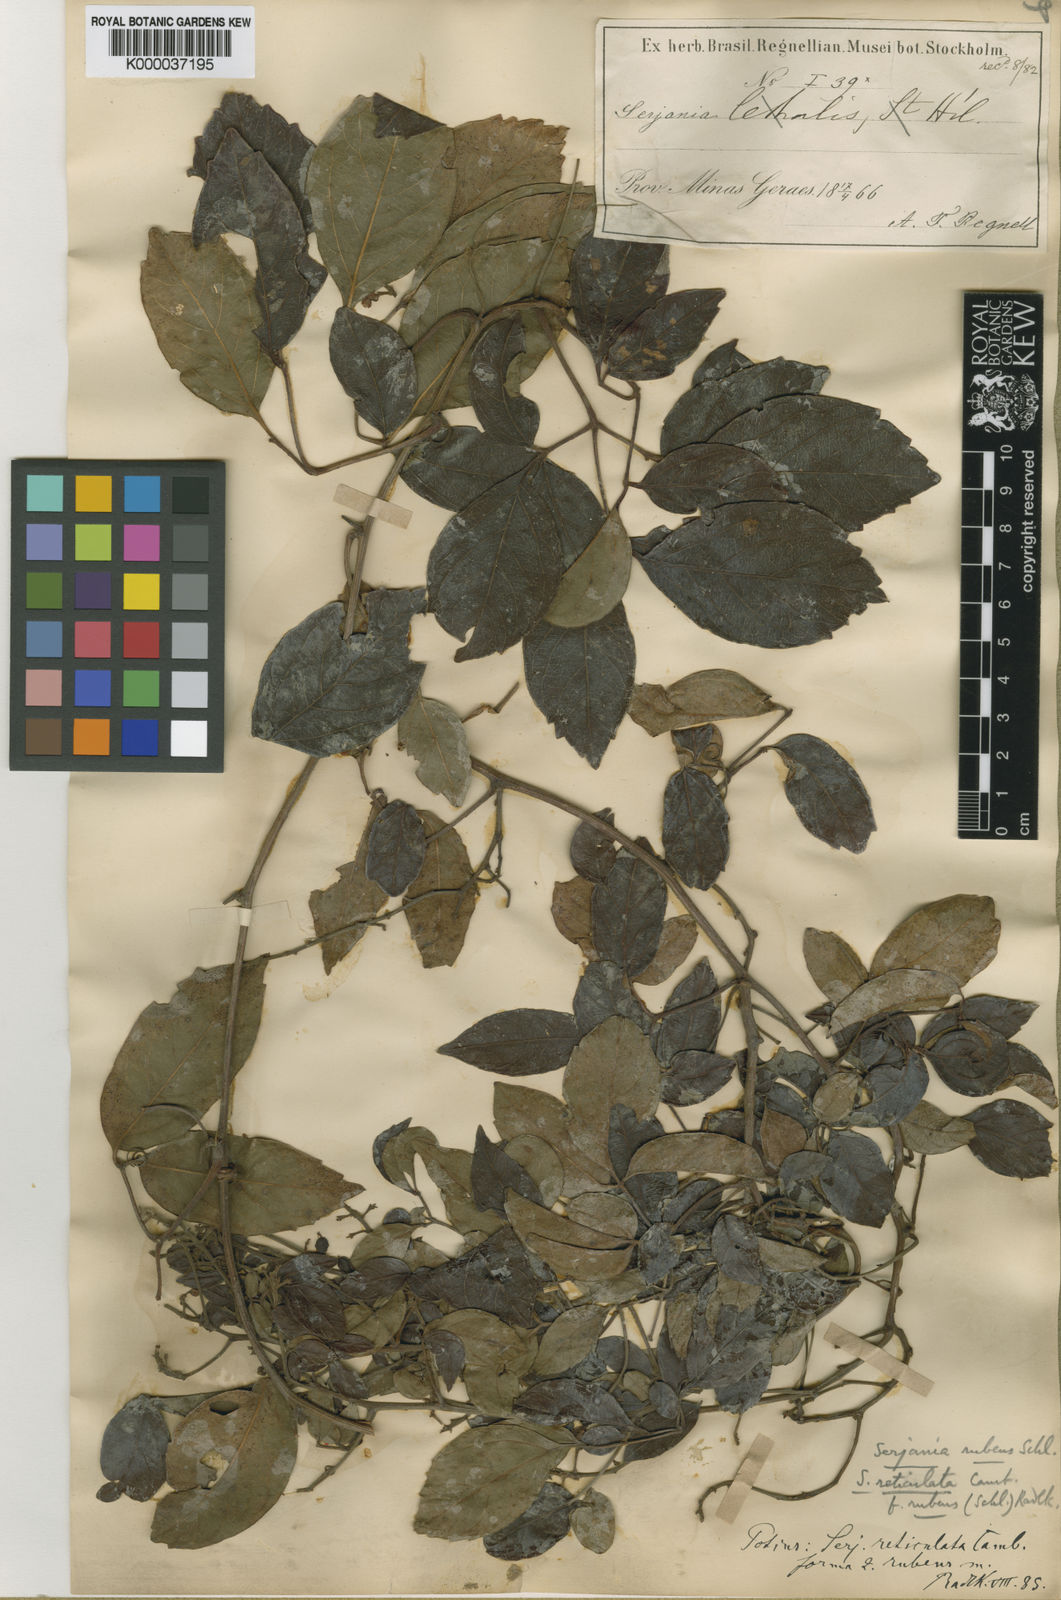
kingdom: Plantae
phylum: Tracheophyta
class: Magnoliopsida
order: Sapindales
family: Sapindaceae
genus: Serjania
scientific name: Serjania reticulata
